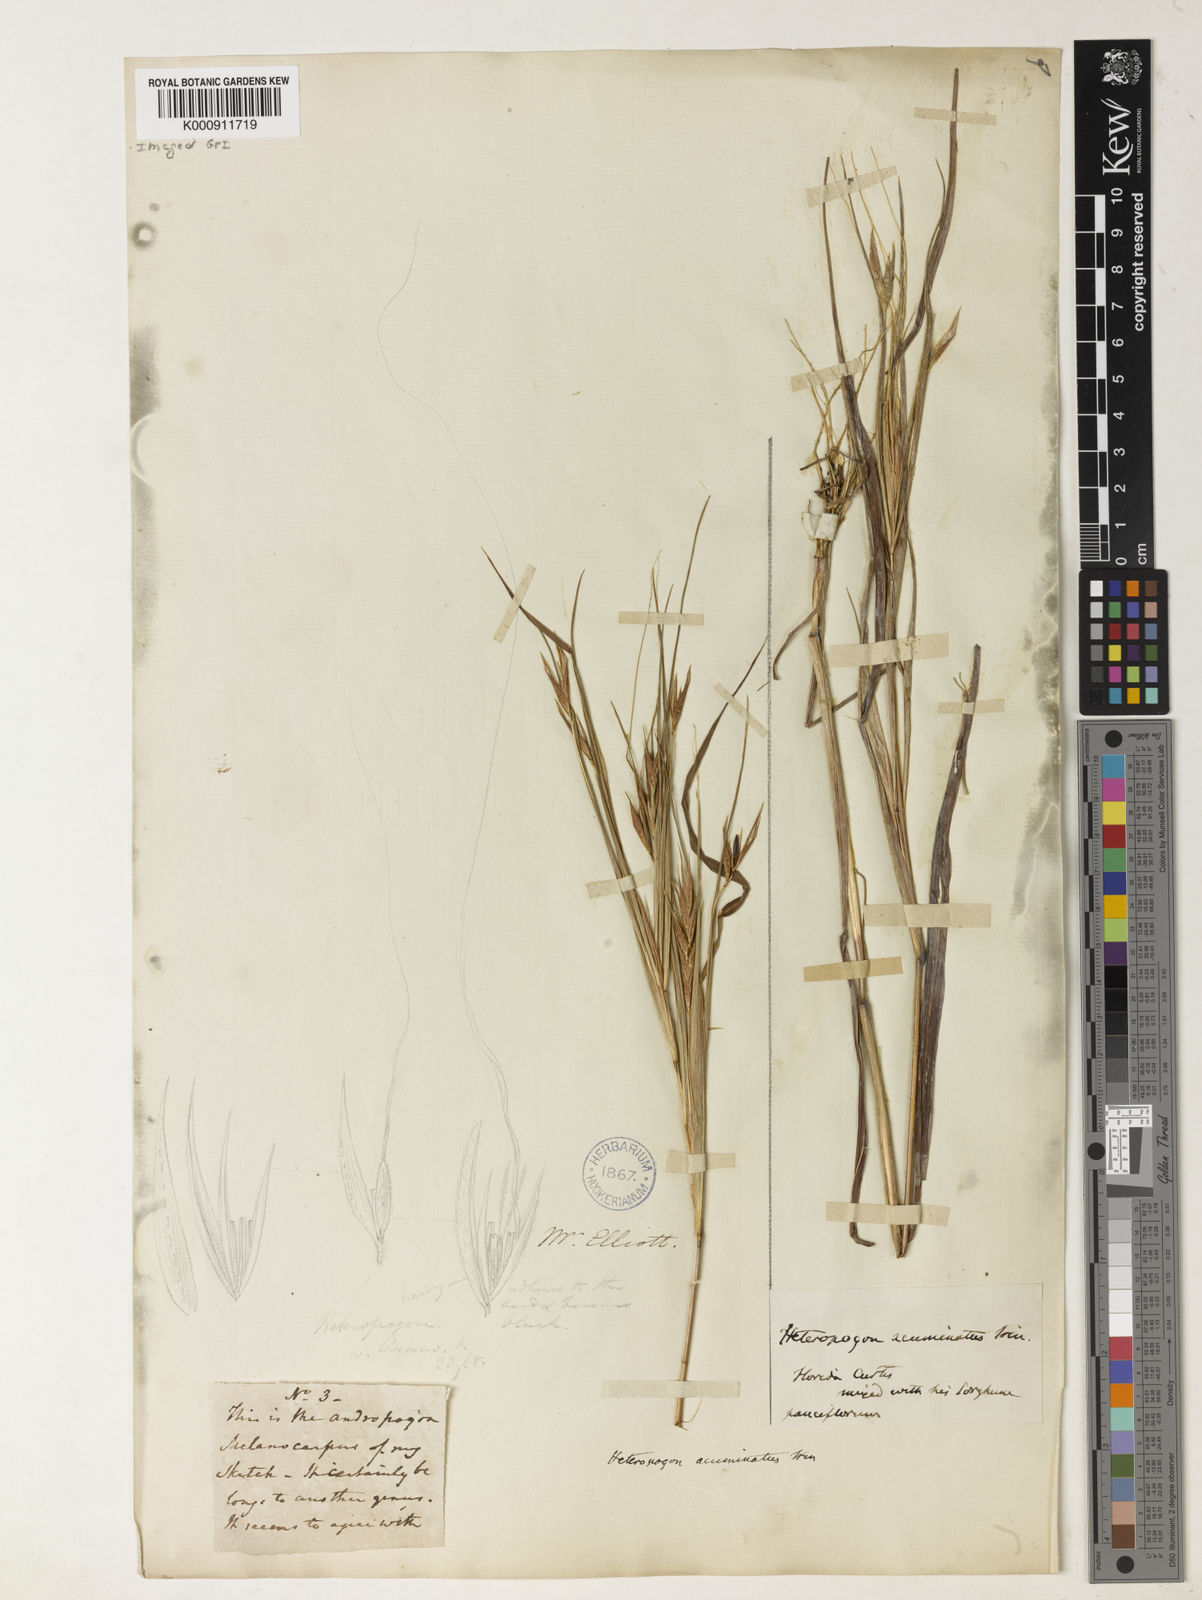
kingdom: Plantae
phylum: Tracheophyta
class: Liliopsida
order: Poales
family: Poaceae
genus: Heteropogon
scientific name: Heteropogon melanocarpus
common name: Sweet tanglehead
